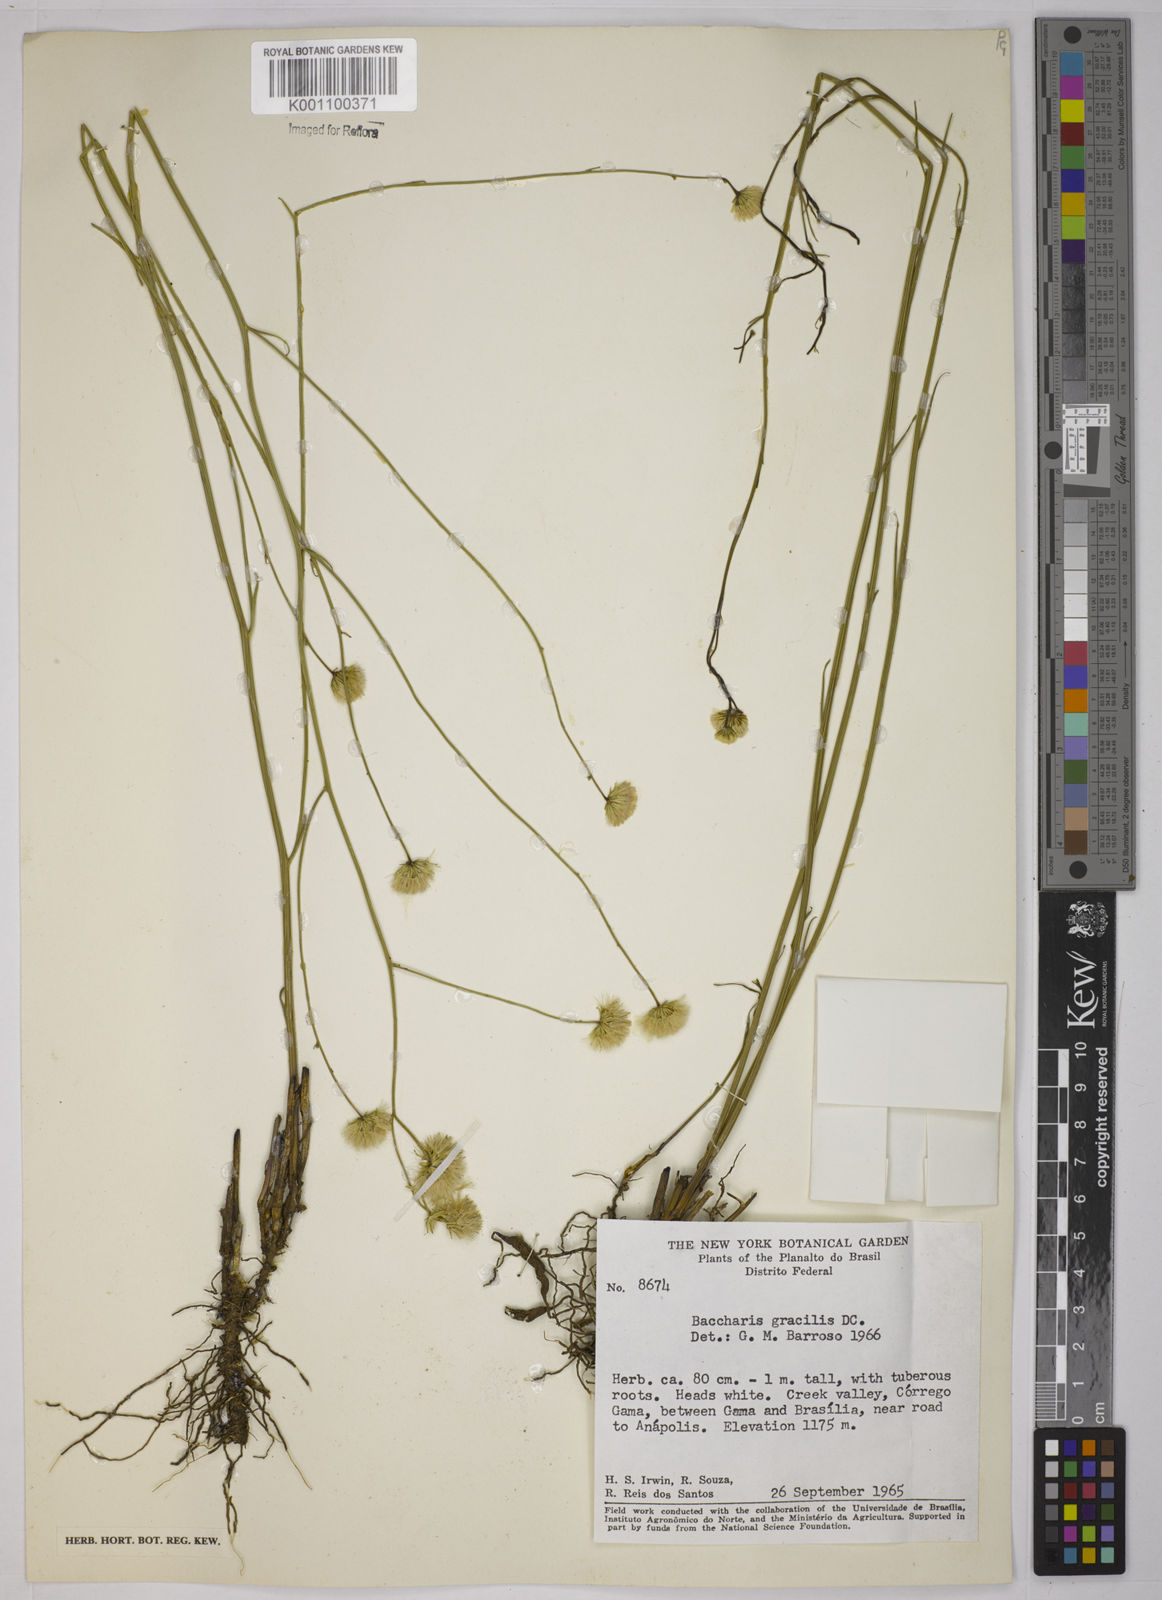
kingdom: Plantae
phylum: Tracheophyta
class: Magnoliopsida
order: Asterales
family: Asteraceae
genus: Baccharis
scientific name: Baccharis orbignyana
